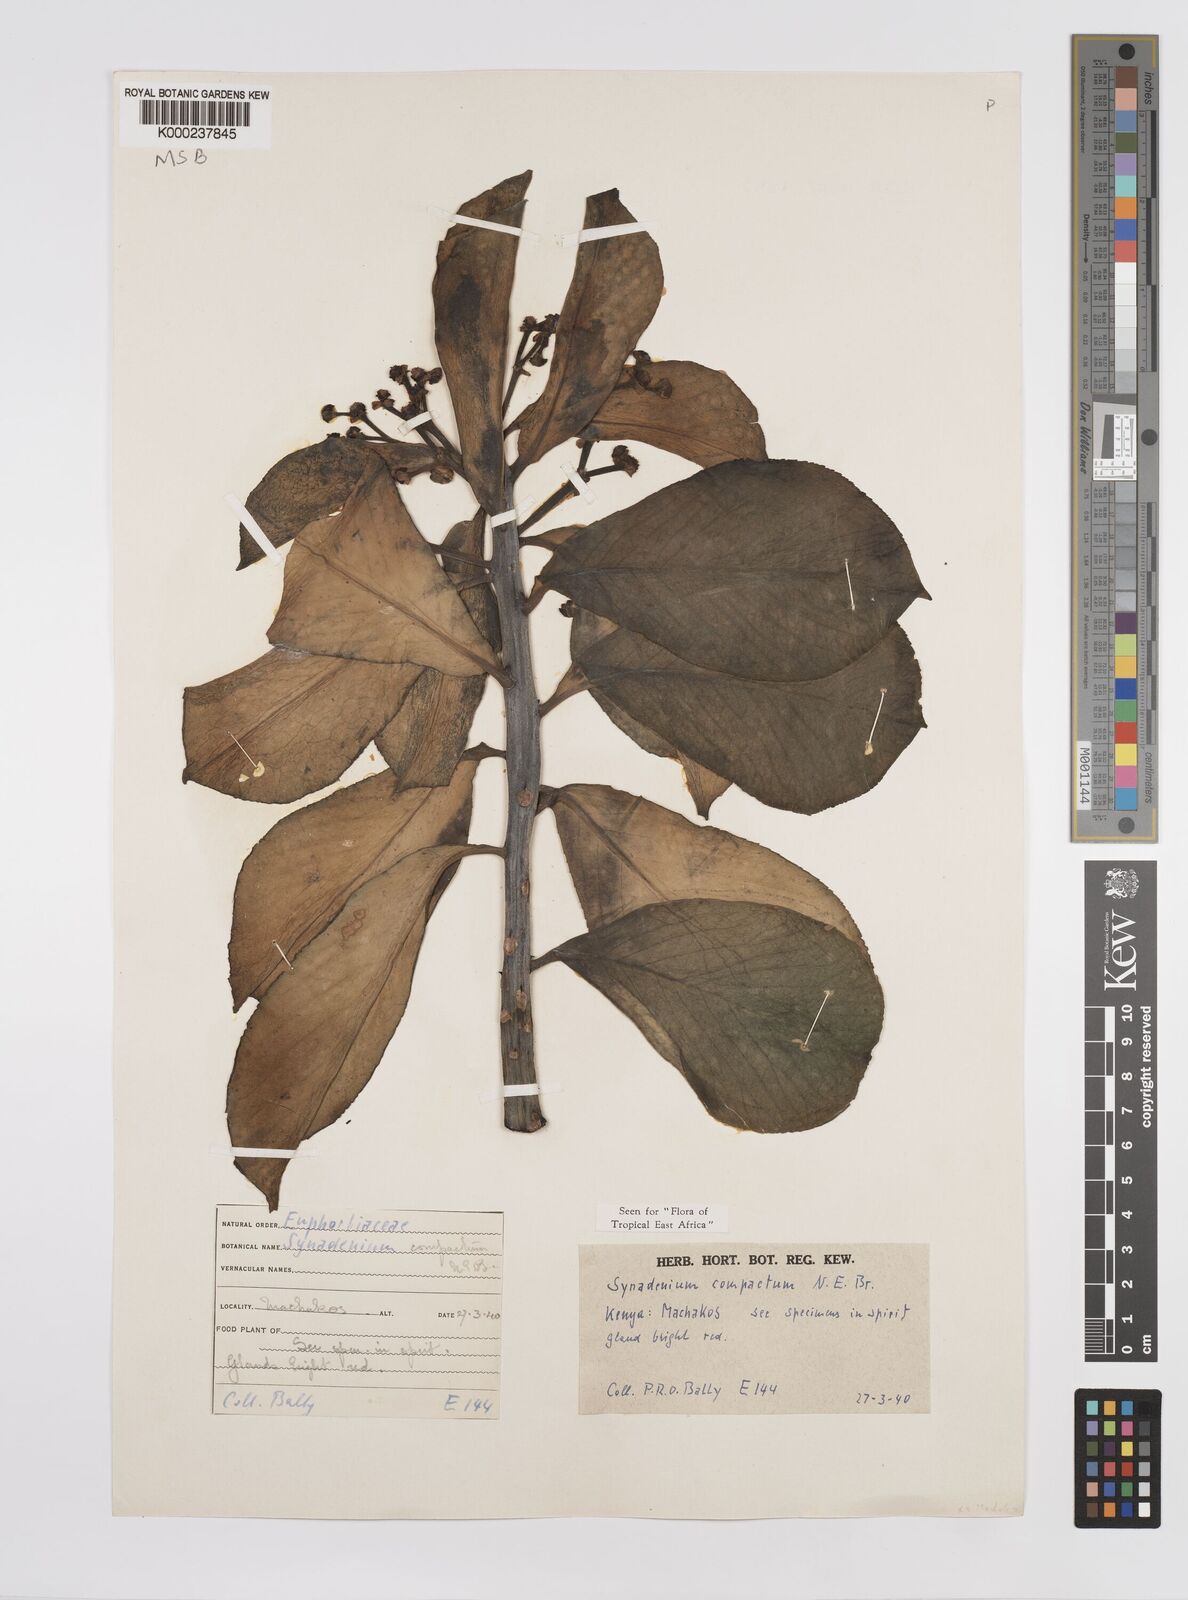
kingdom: Plantae
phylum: Tracheophyta
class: Magnoliopsida
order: Malpighiales
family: Euphorbiaceae
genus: Euphorbia
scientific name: Euphorbia bicompacta
